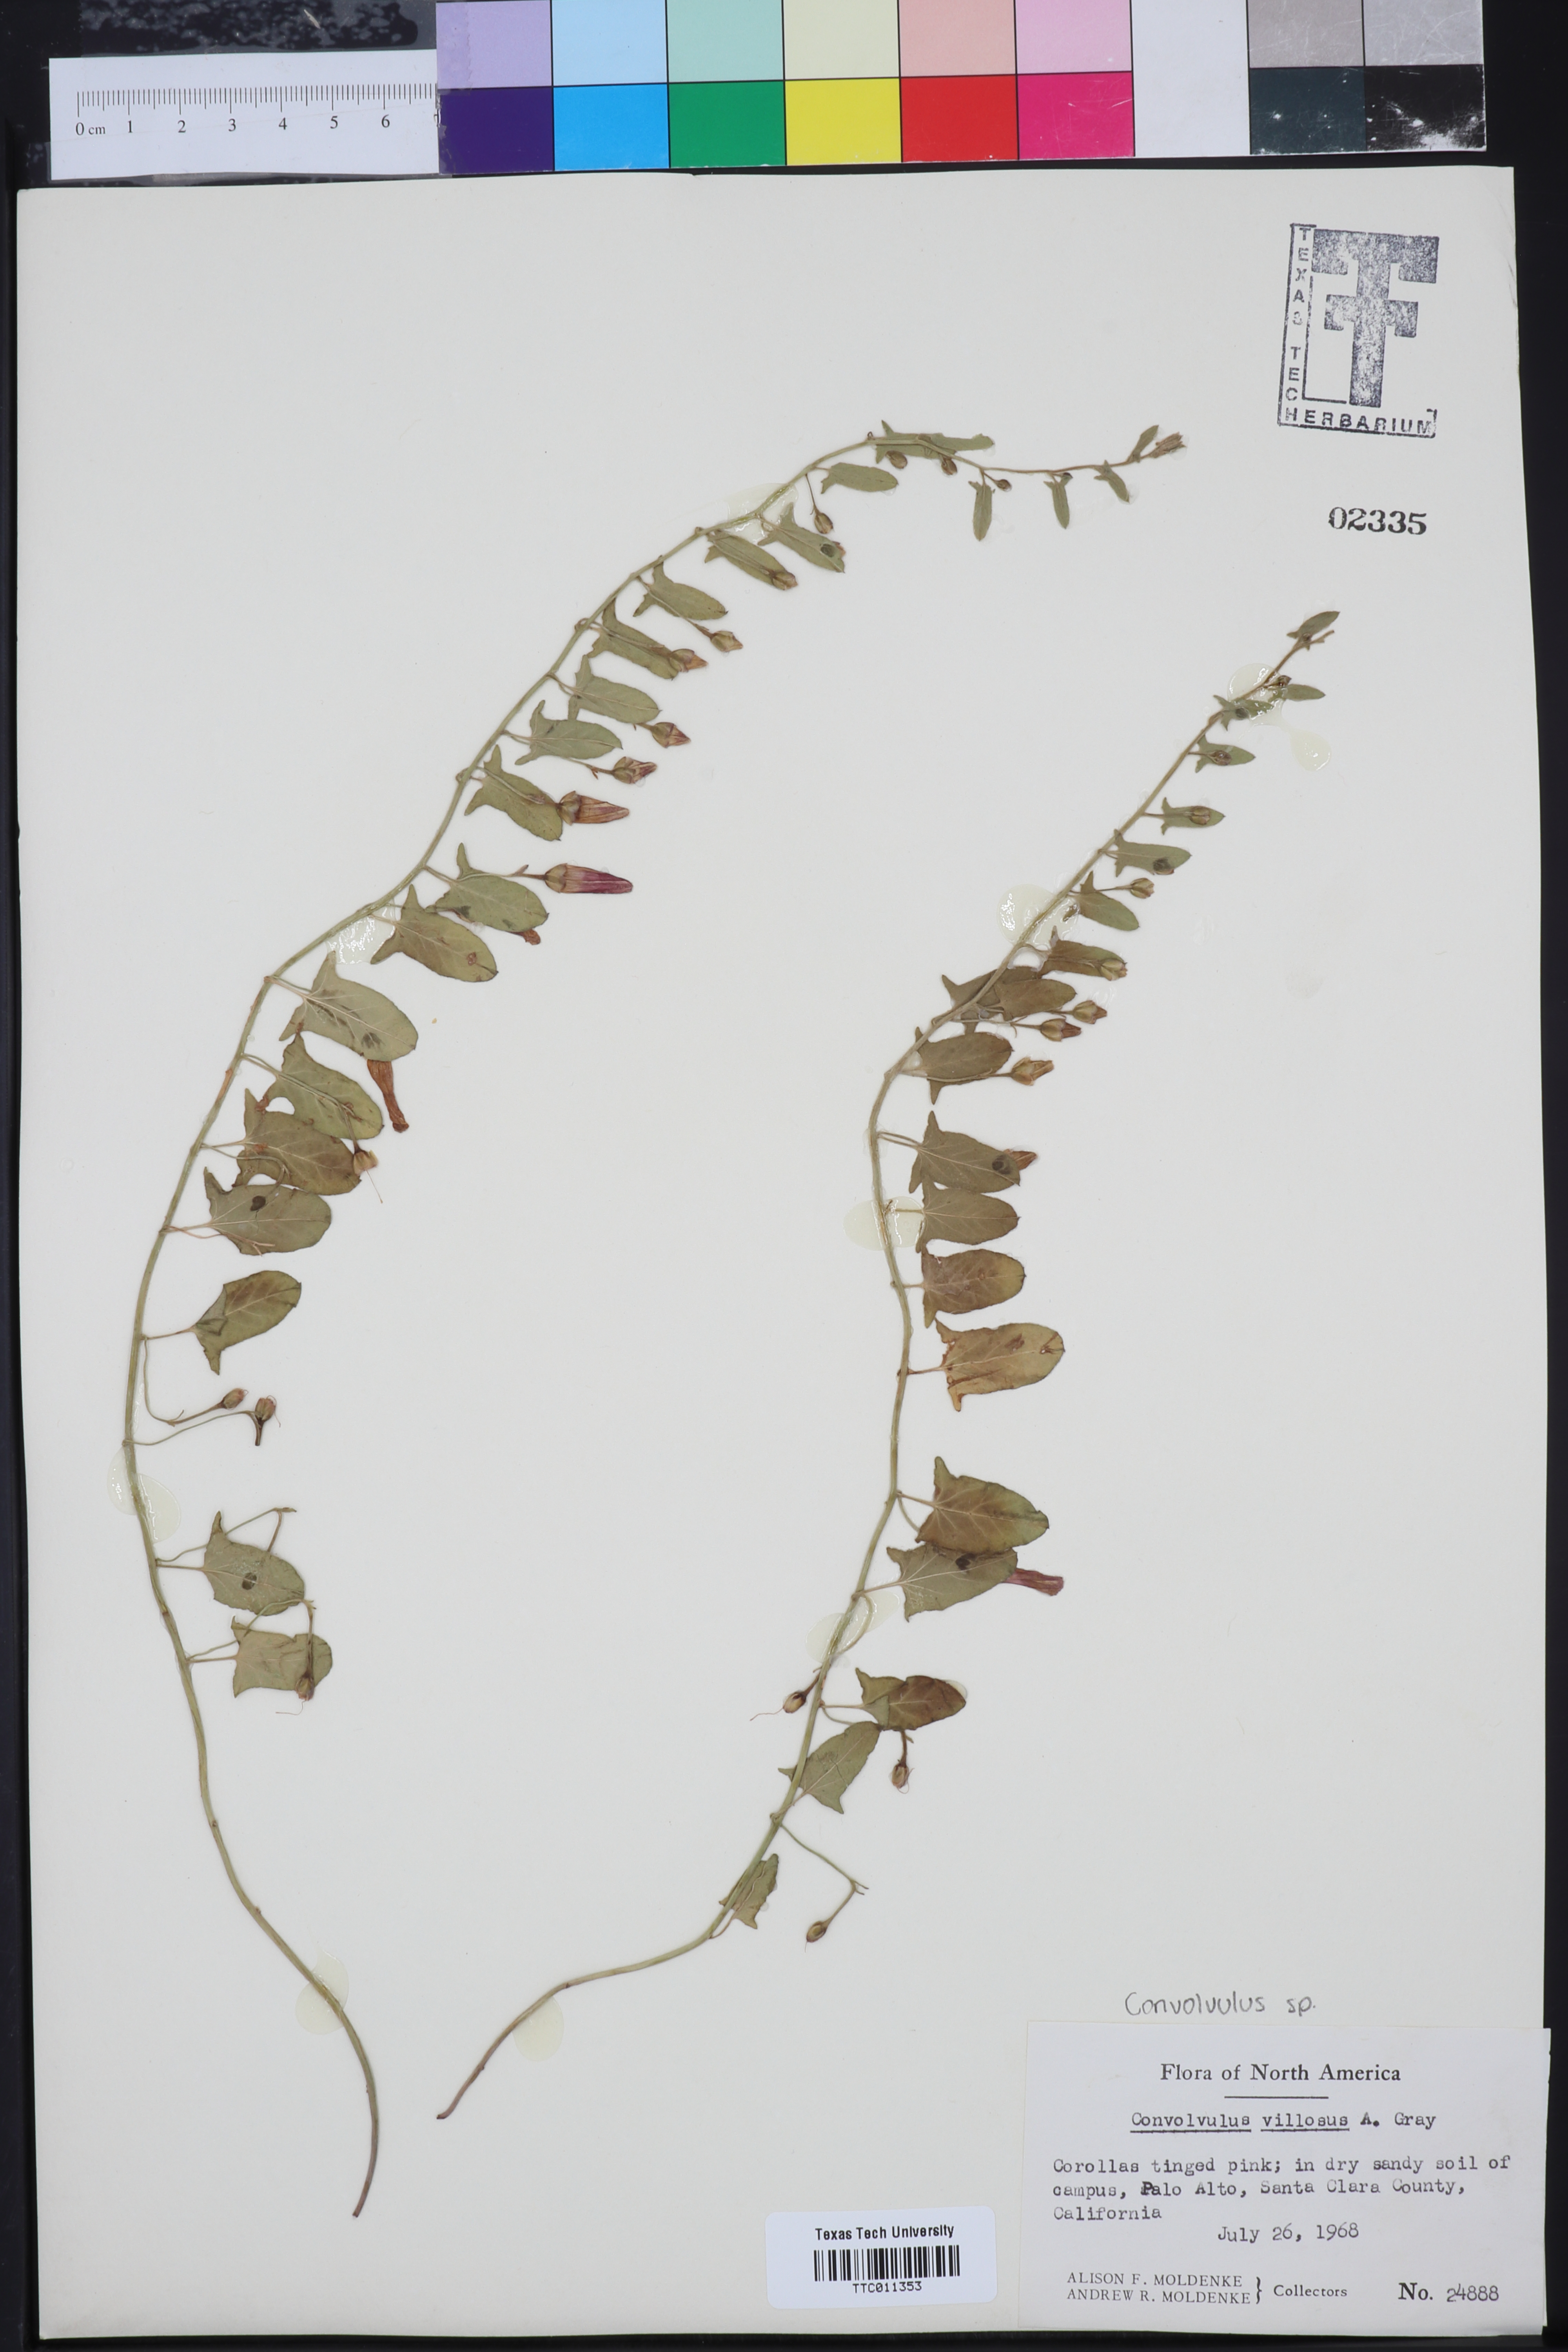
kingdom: Plantae
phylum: Tracheophyta
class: Magnoliopsida
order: Solanales
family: Convolvulaceae
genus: Jacquemontia
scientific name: Jacquemontia tamnifolia
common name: Hairy clustervine
